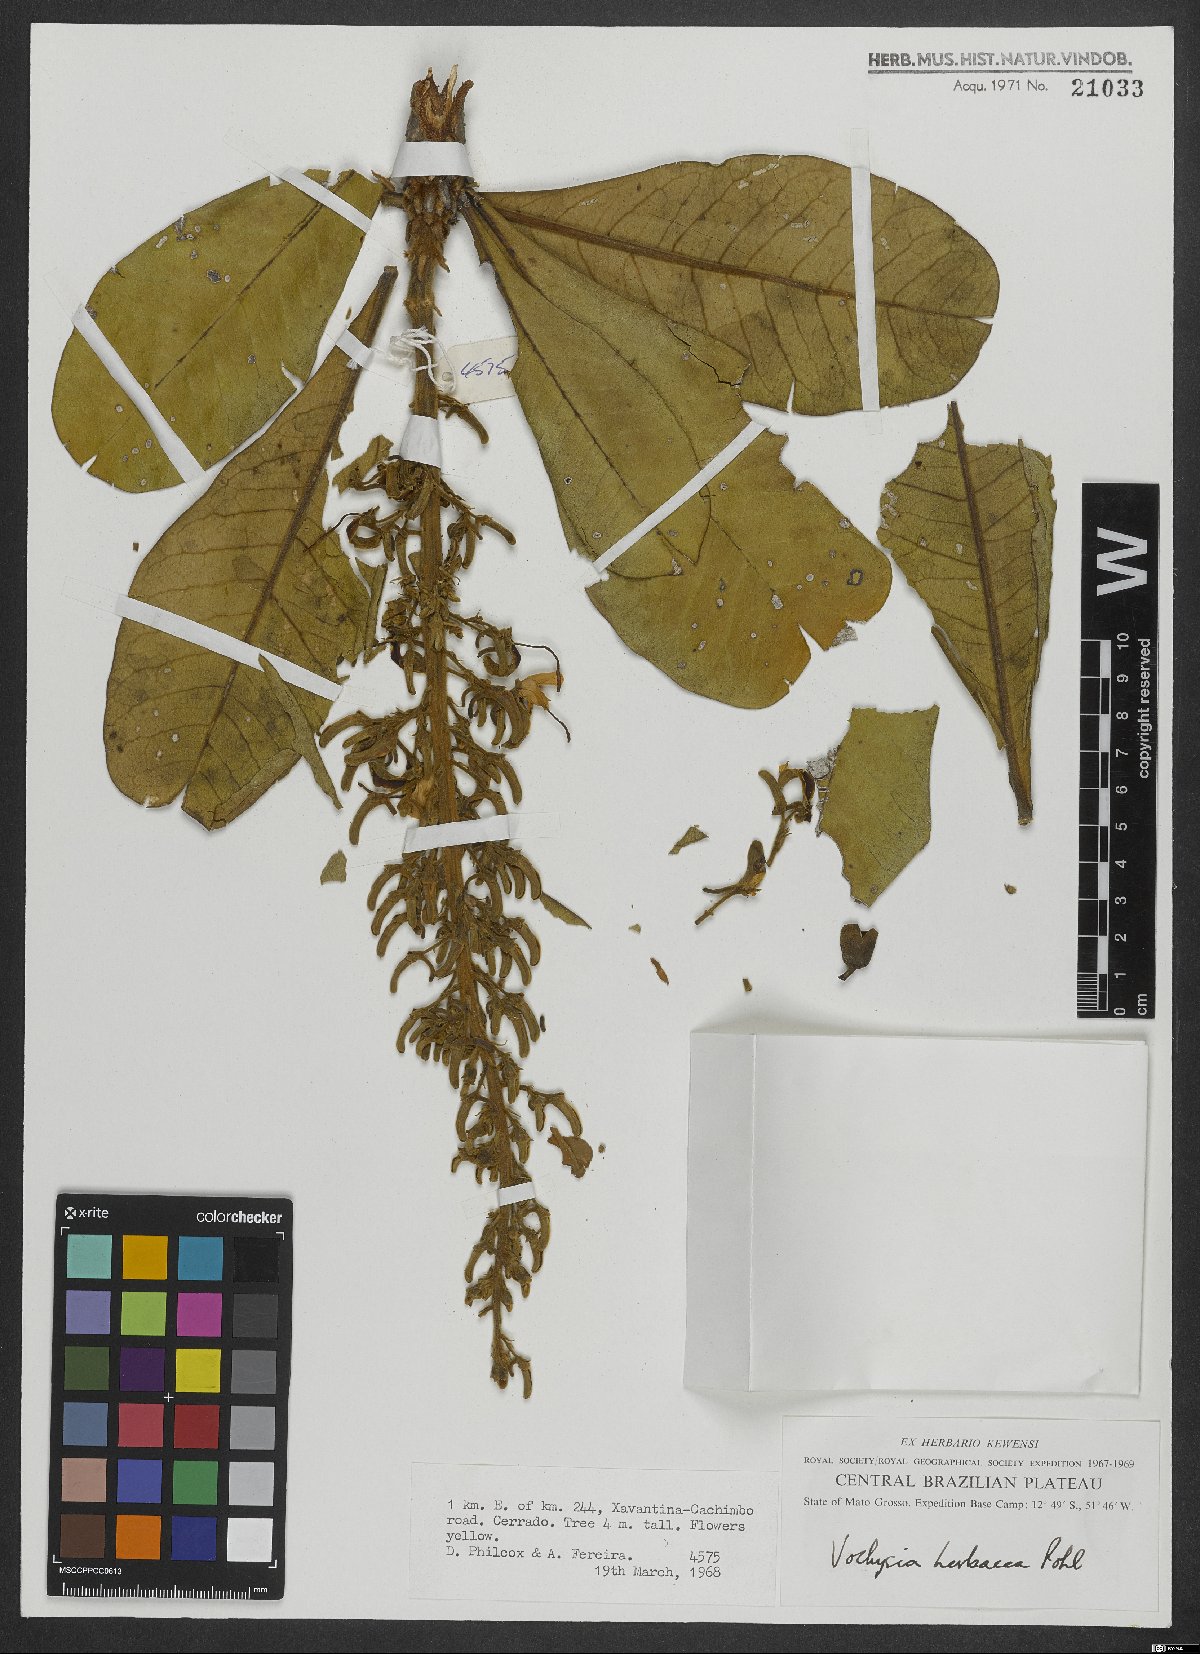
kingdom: Plantae
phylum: Tracheophyta
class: Magnoliopsida
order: Myrtales
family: Vochysiaceae
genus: Vochysia
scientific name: Vochysia herbacea
